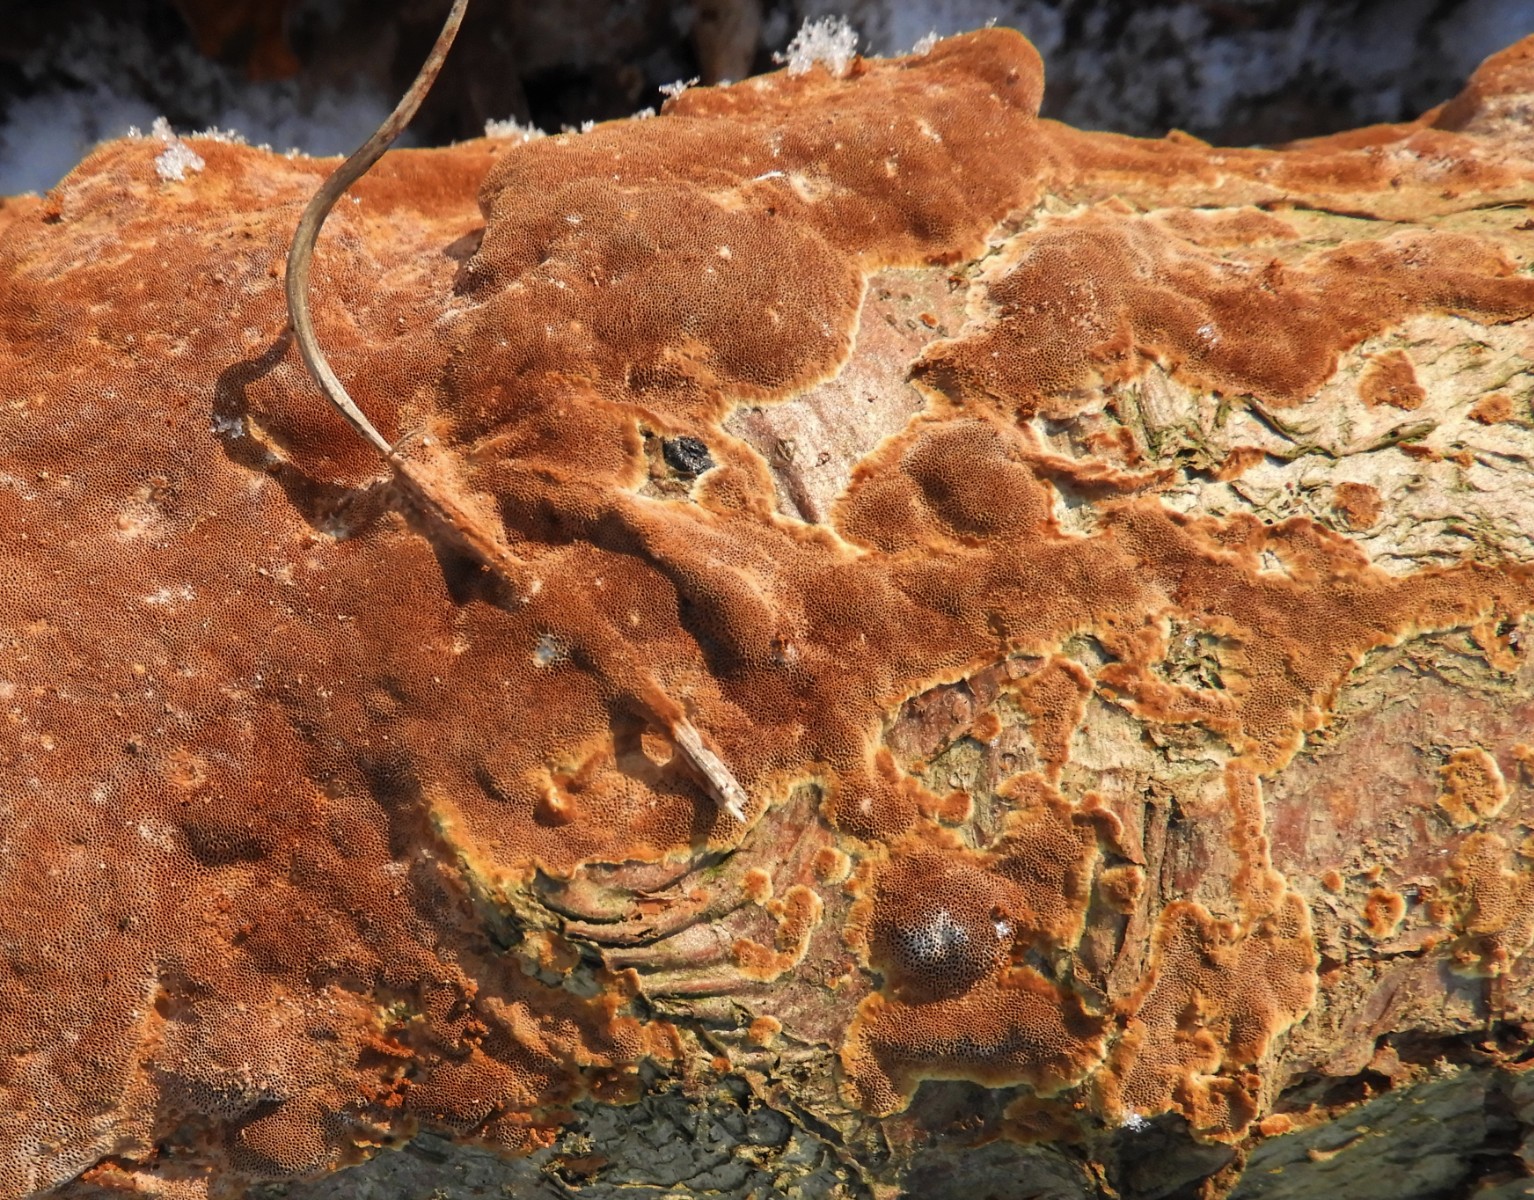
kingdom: Fungi
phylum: Basidiomycota
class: Agaricomycetes
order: Hymenochaetales
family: Hymenochaetaceae
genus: Fuscoporia
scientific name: Fuscoporia ferrea
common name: skorpe-ildporesvamp
